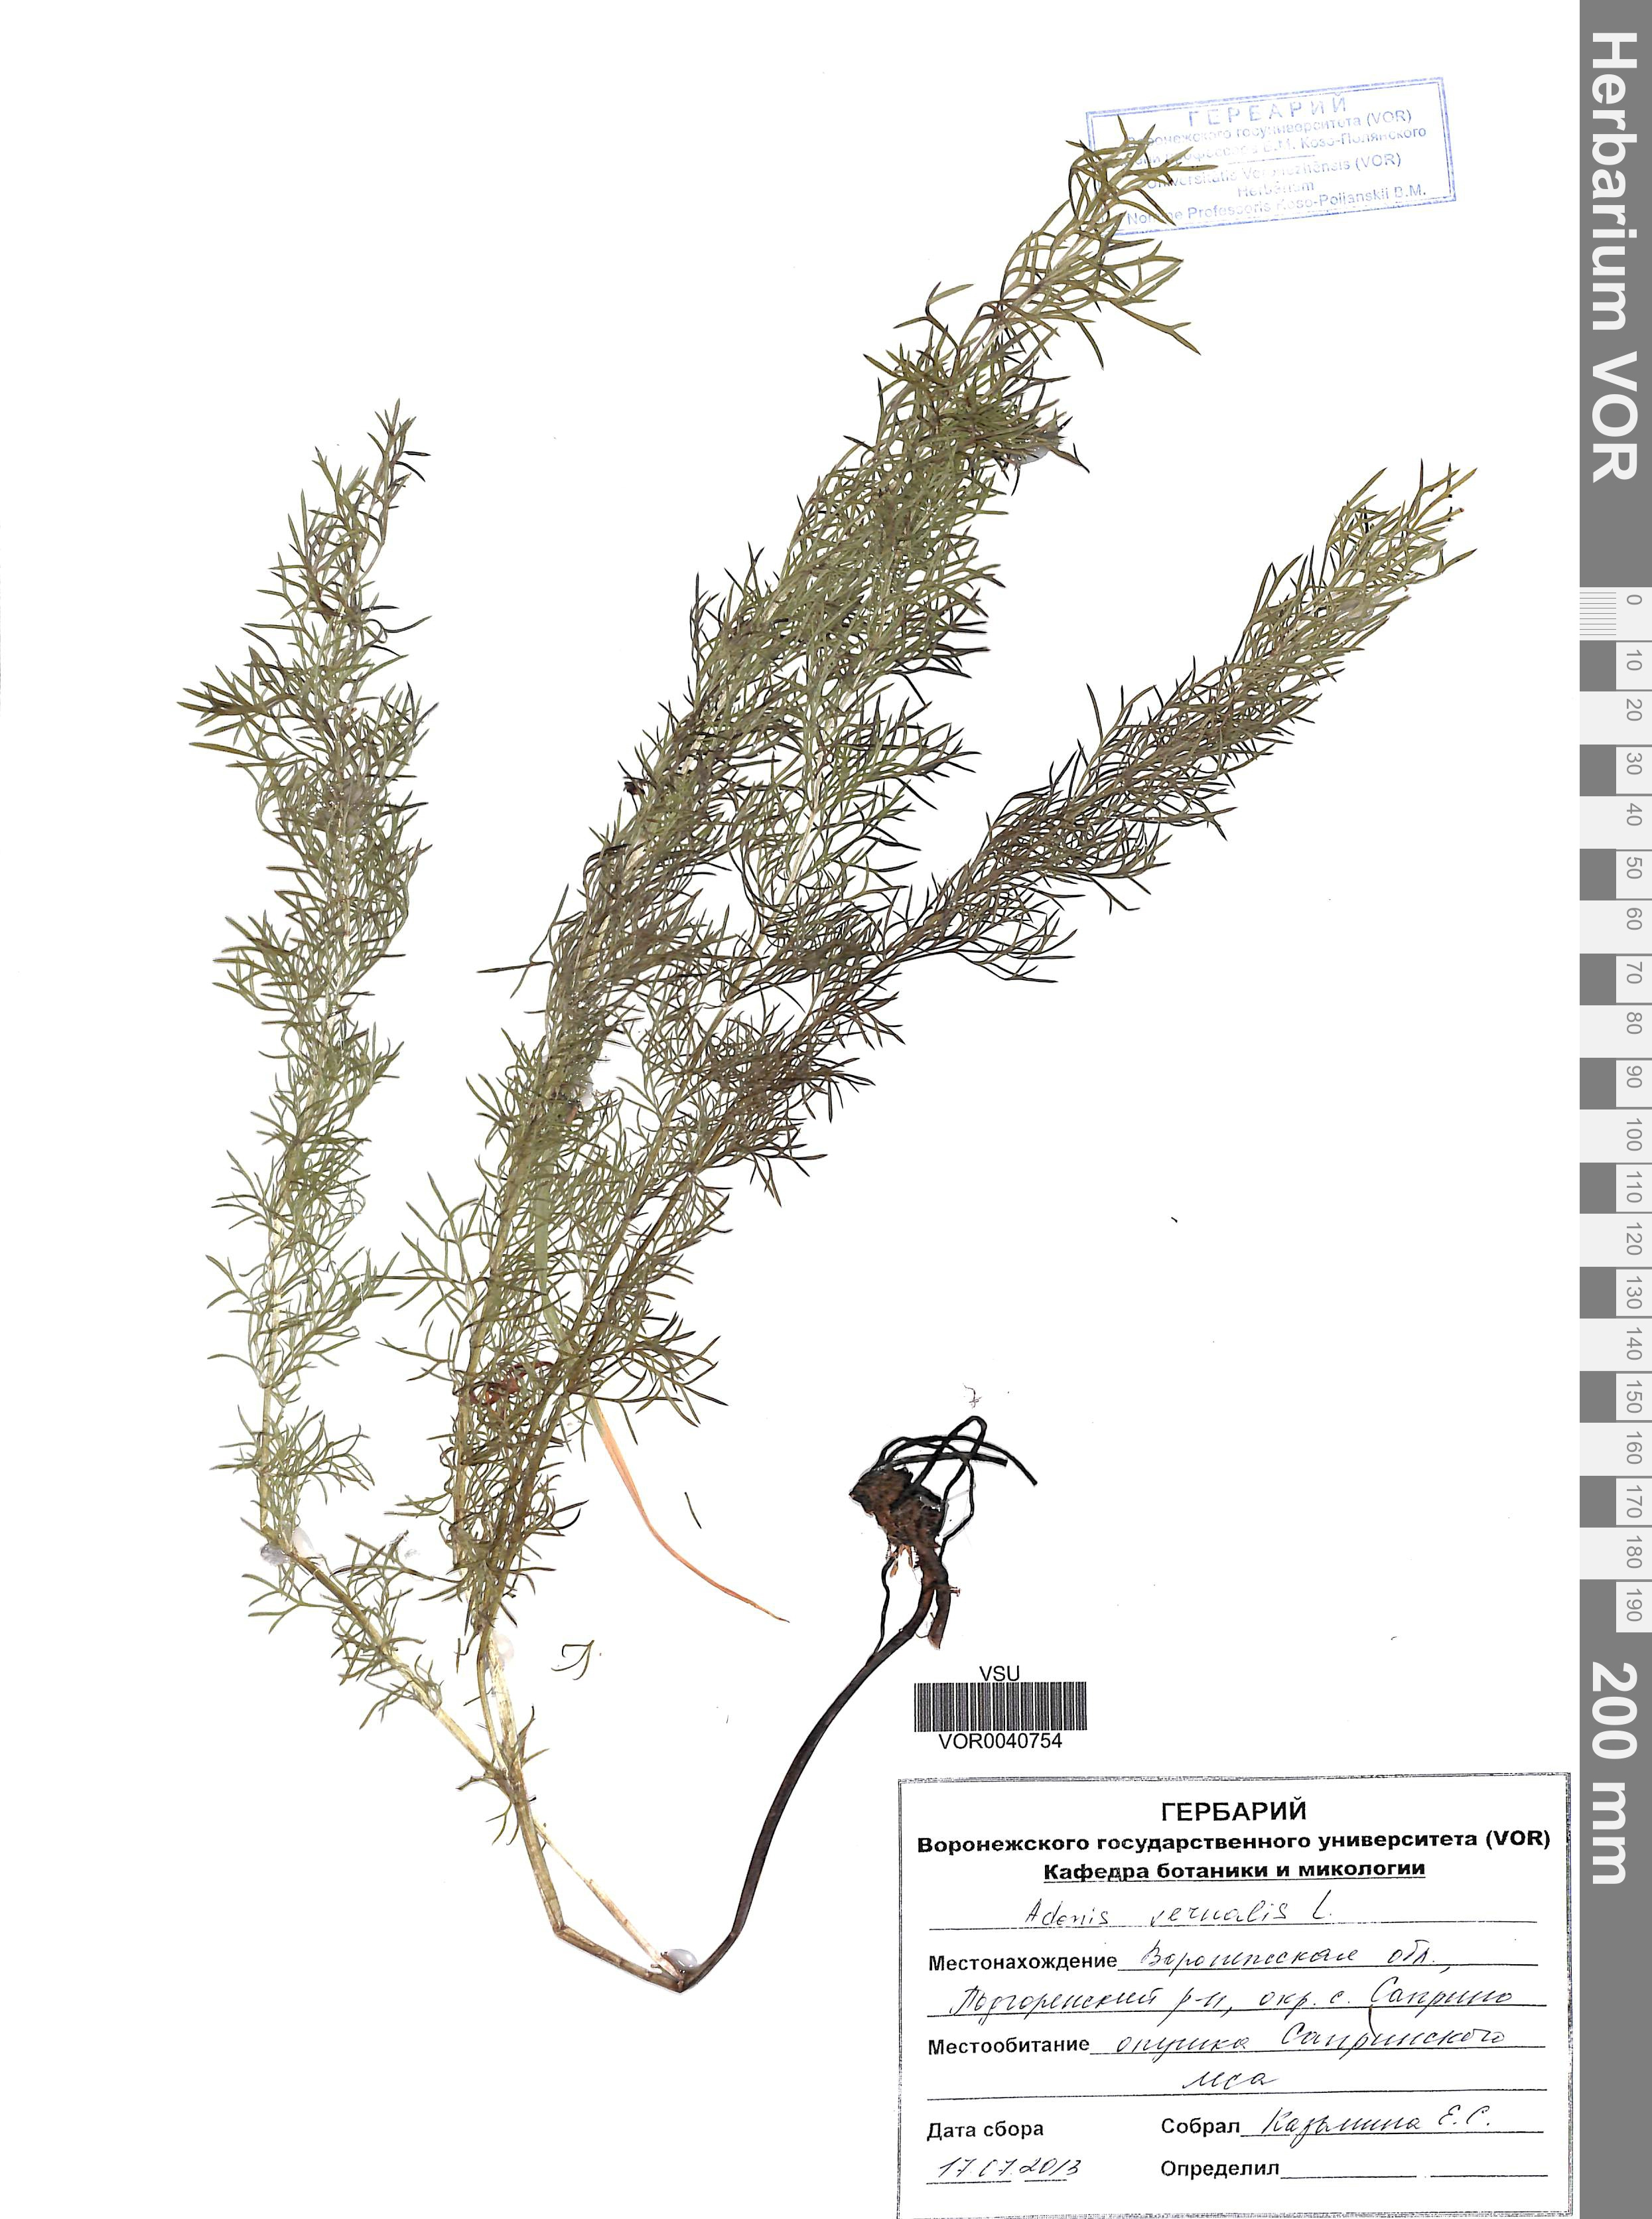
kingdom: Plantae
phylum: Tracheophyta
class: Magnoliopsida
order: Ranunculales
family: Ranunculaceae
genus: Adonis
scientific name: Adonis vernalis
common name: Yellow pheasants-eye
